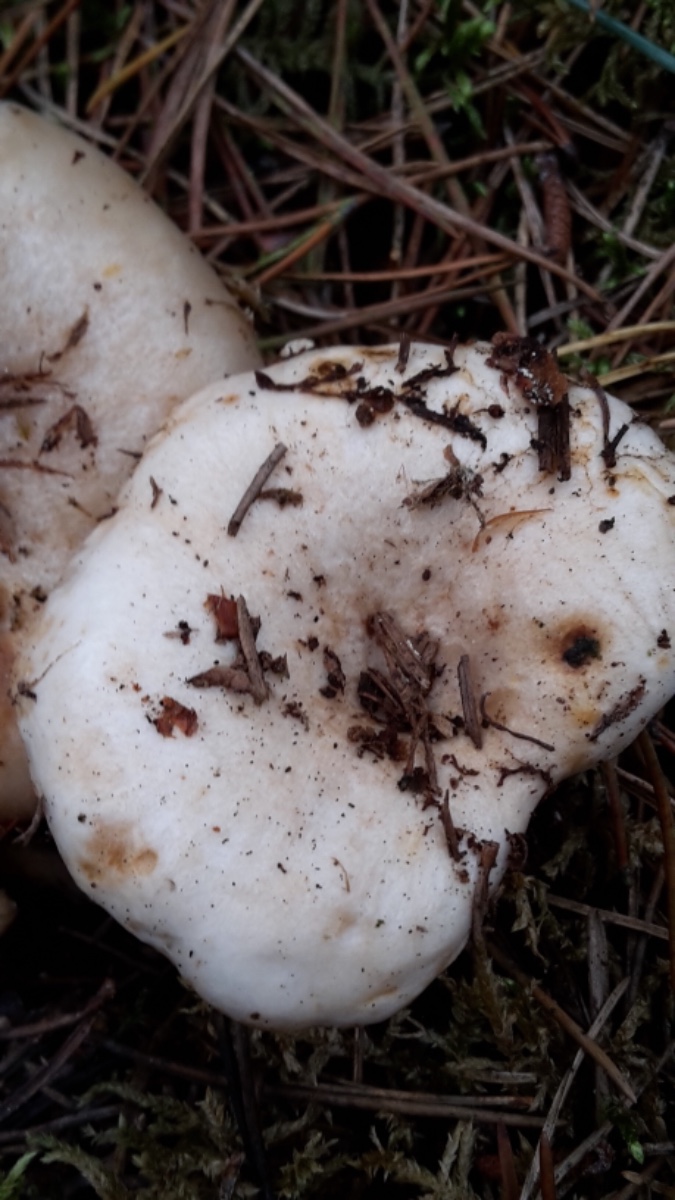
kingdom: Fungi
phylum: Basidiomycota
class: Agaricomycetes
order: Russulales
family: Russulaceae
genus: Lactarius
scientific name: Lactarius musteus
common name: elfenbens-mælkehat
